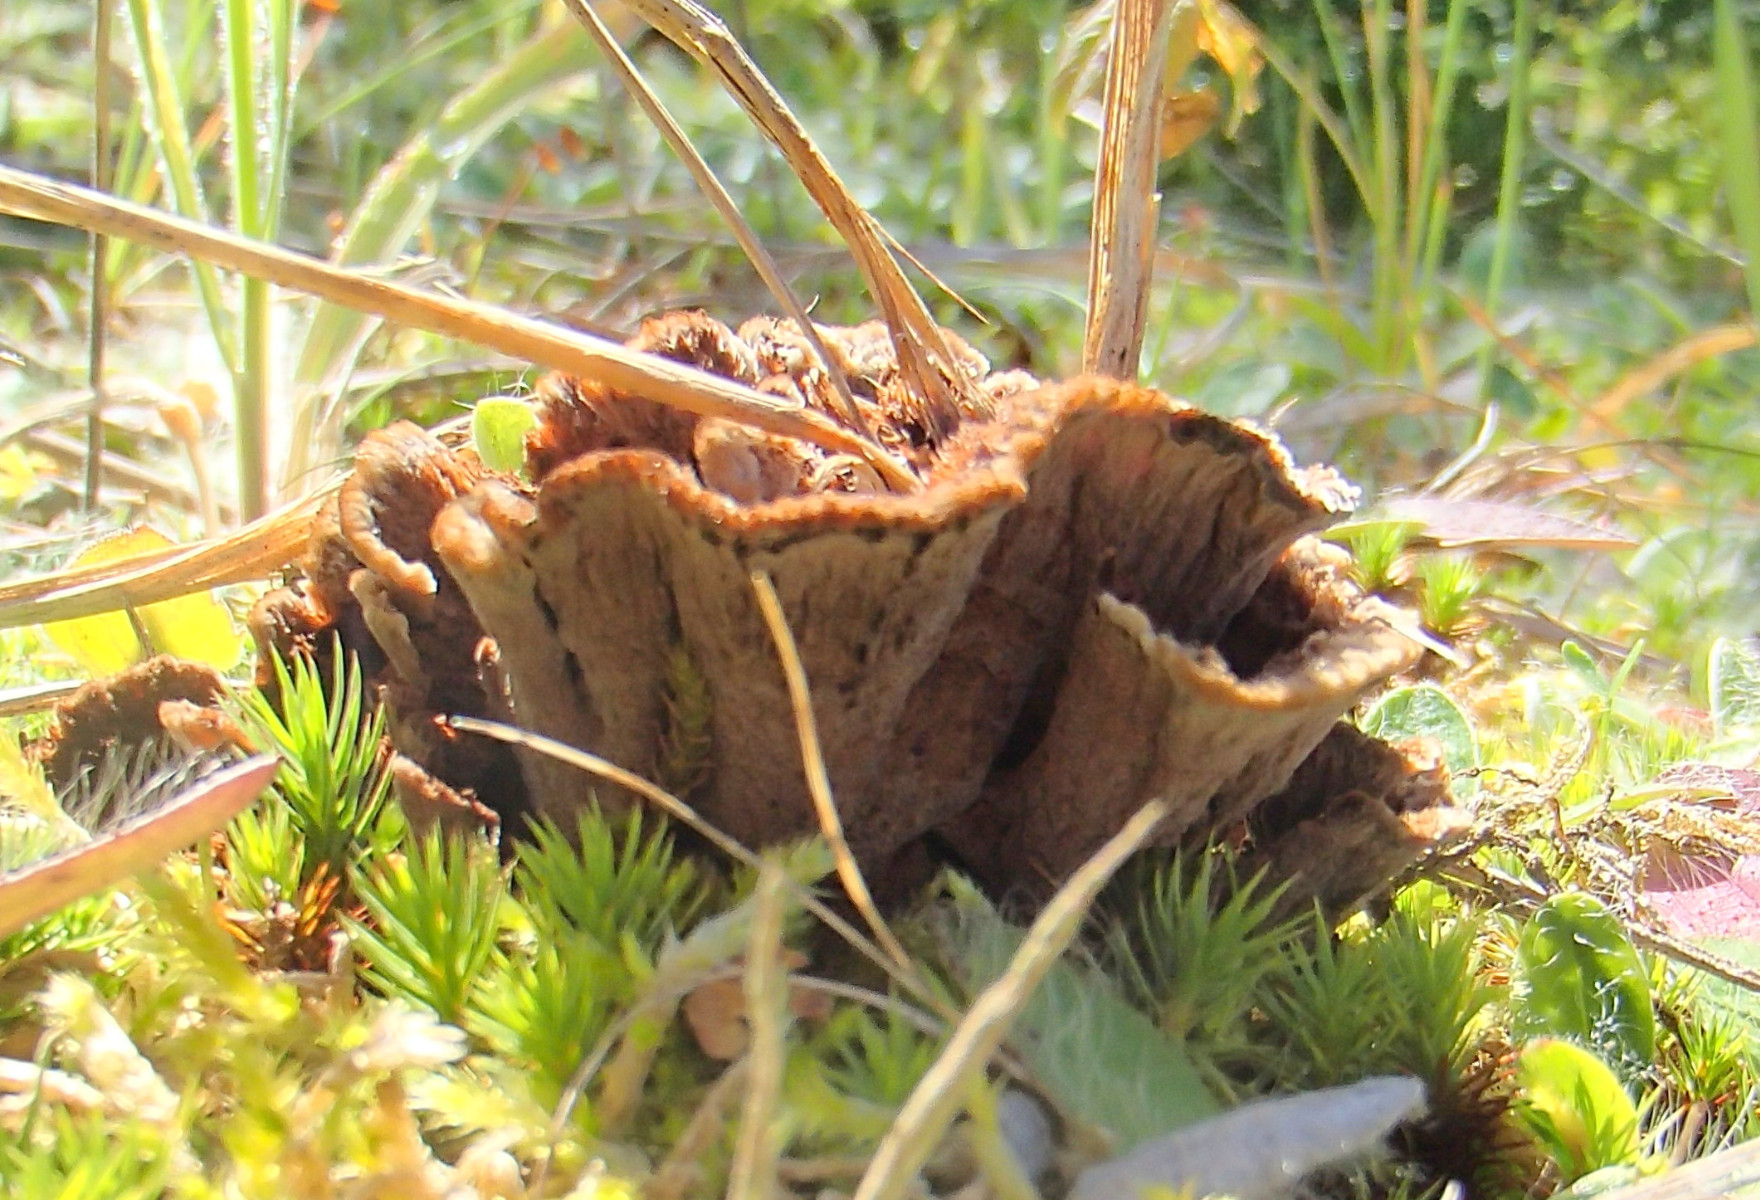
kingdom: Fungi
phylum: Basidiomycota
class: Agaricomycetes
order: Thelephorales
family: Thelephoraceae
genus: Thelephora
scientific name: Thelephora terrestris
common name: fliget frynsesvamp
